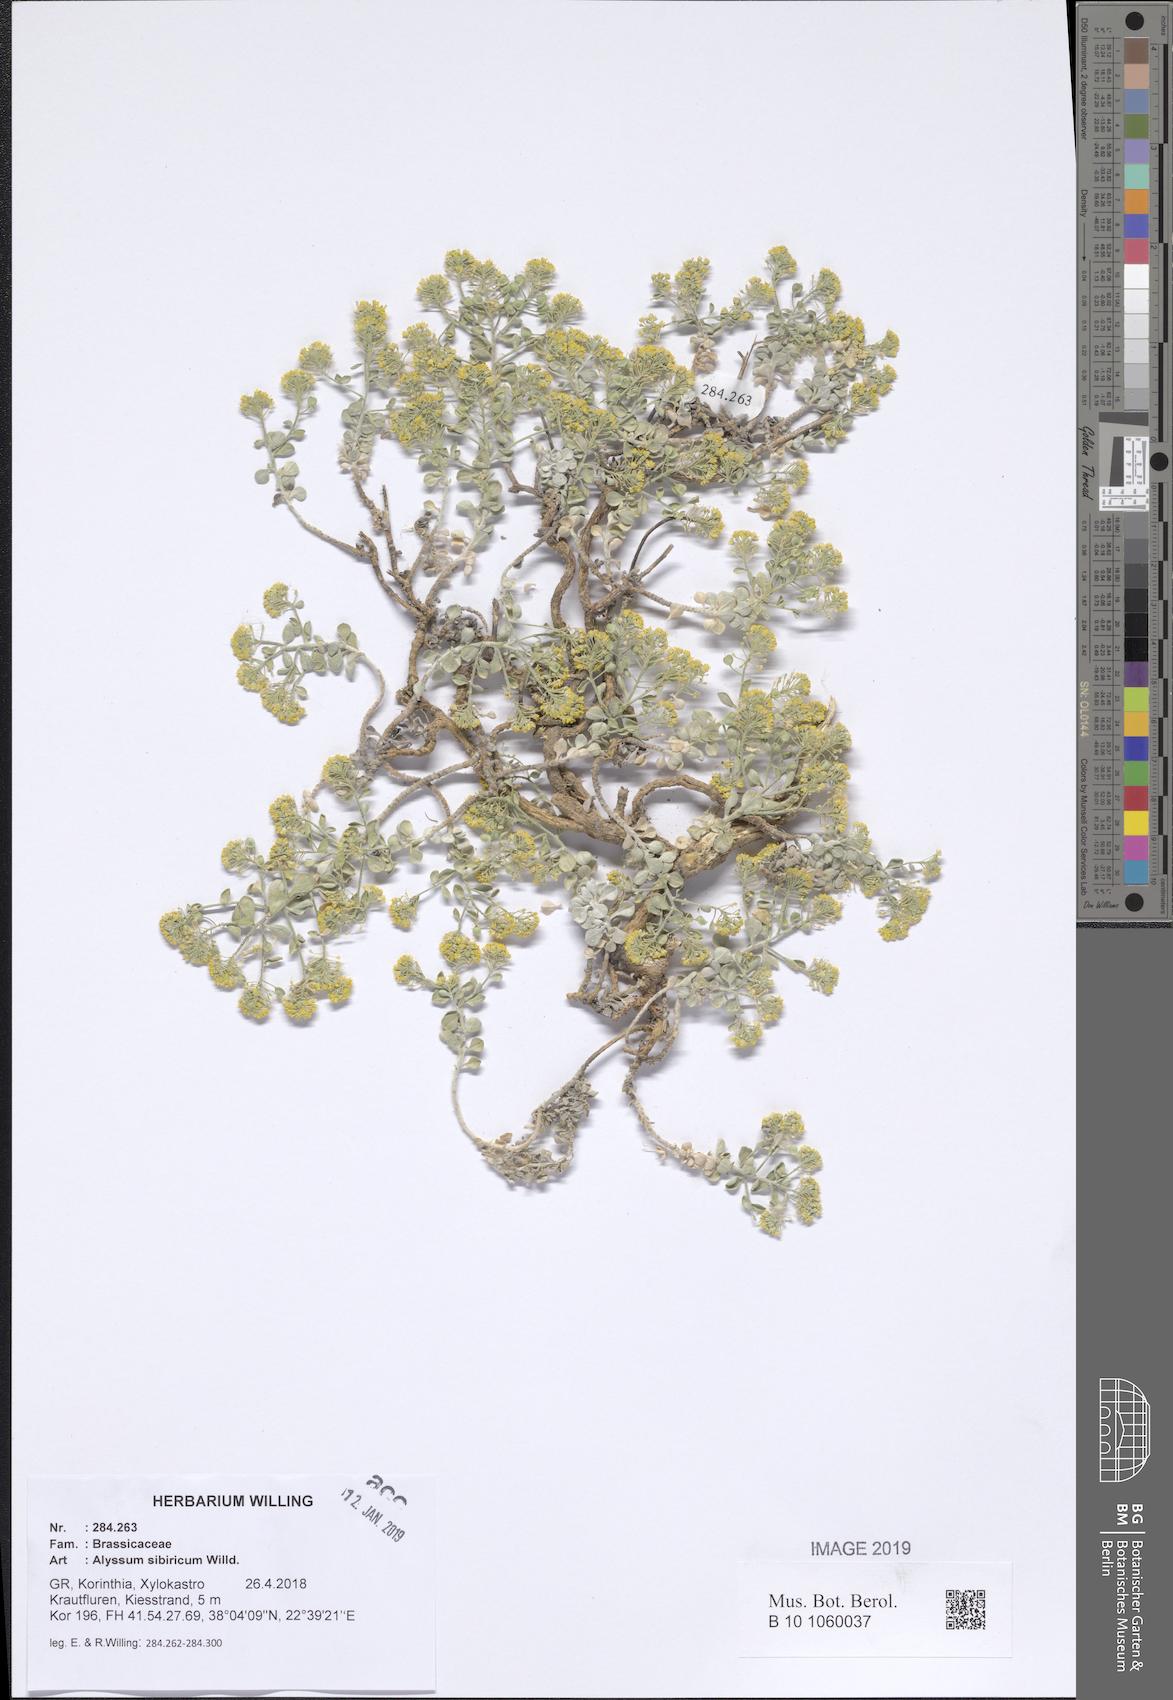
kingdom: Plantae
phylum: Tracheophyta
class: Magnoliopsida
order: Brassicales
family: Brassicaceae
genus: Odontarrhena
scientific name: Odontarrhena sibirica
